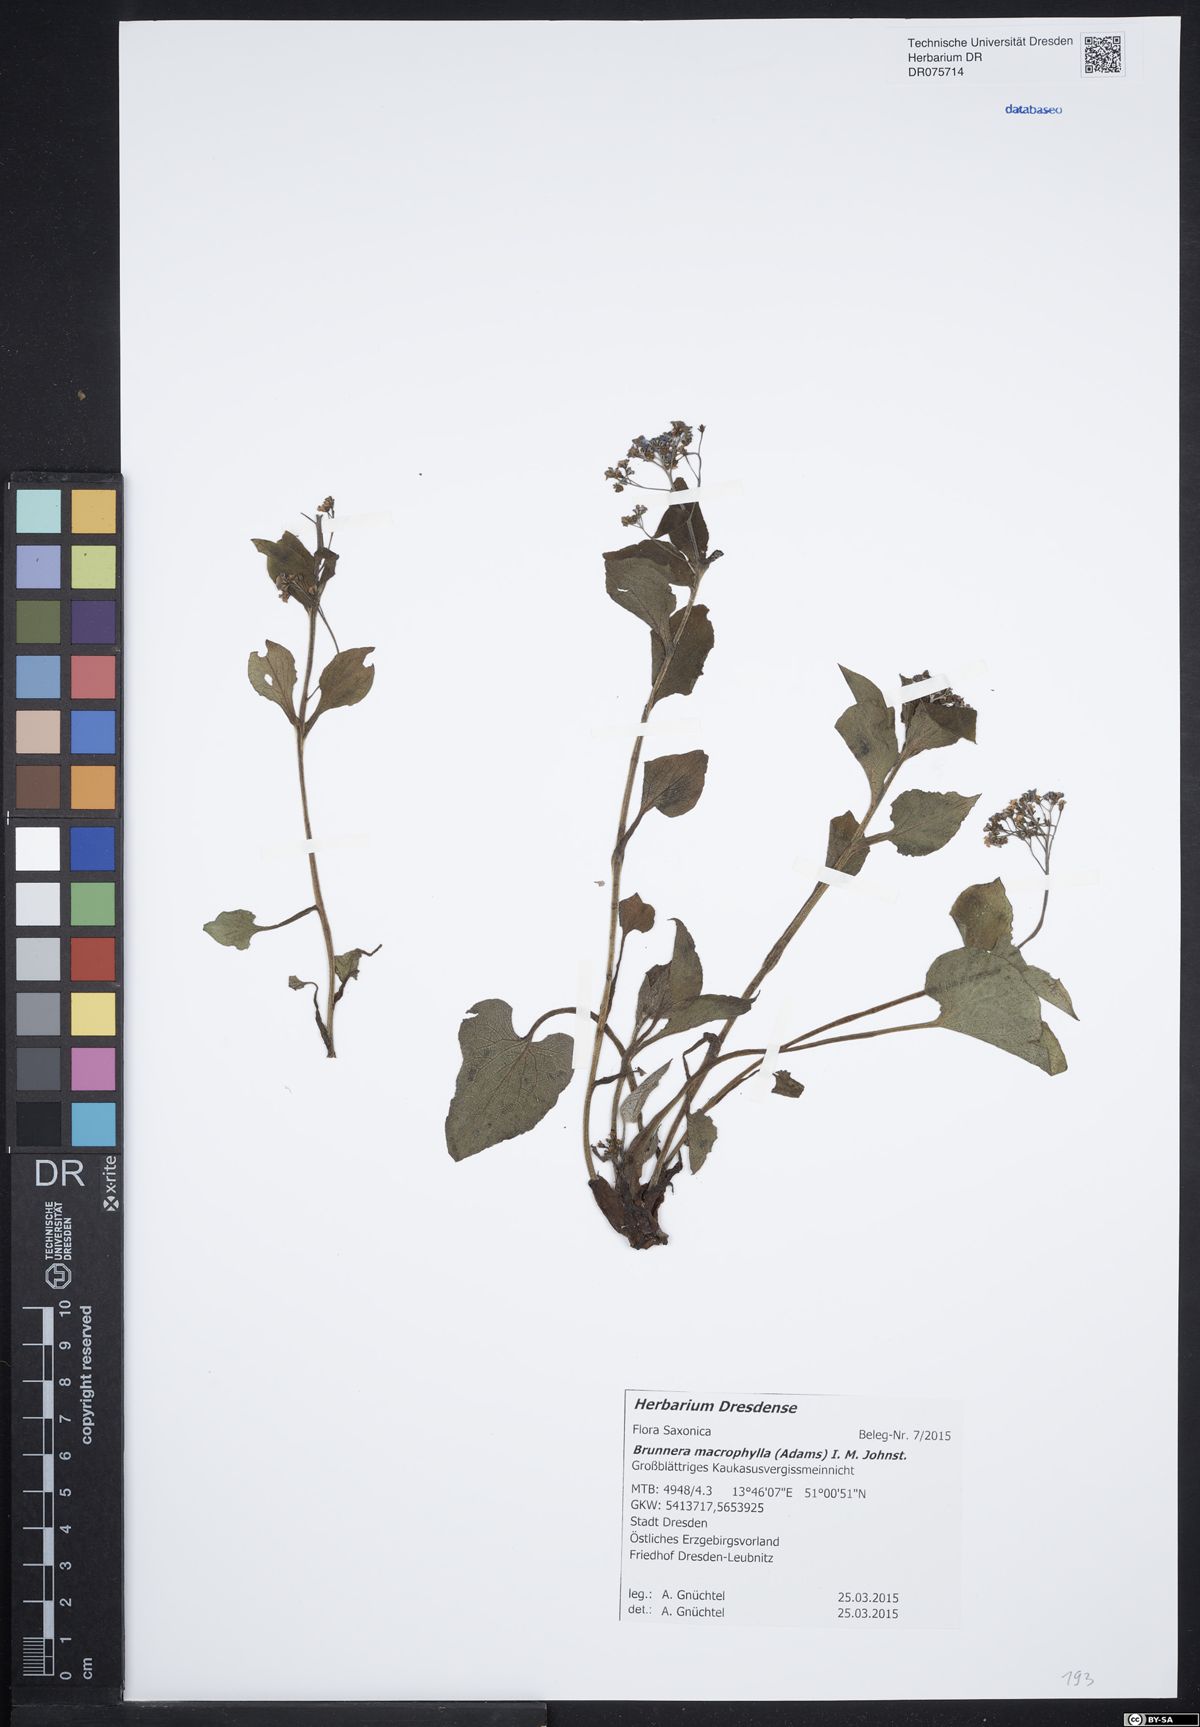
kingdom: Plantae
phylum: Tracheophyta
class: Magnoliopsida
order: Boraginales
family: Boraginaceae
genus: Brunnera
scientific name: Brunnera macrophylla
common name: Great forget-me-not
